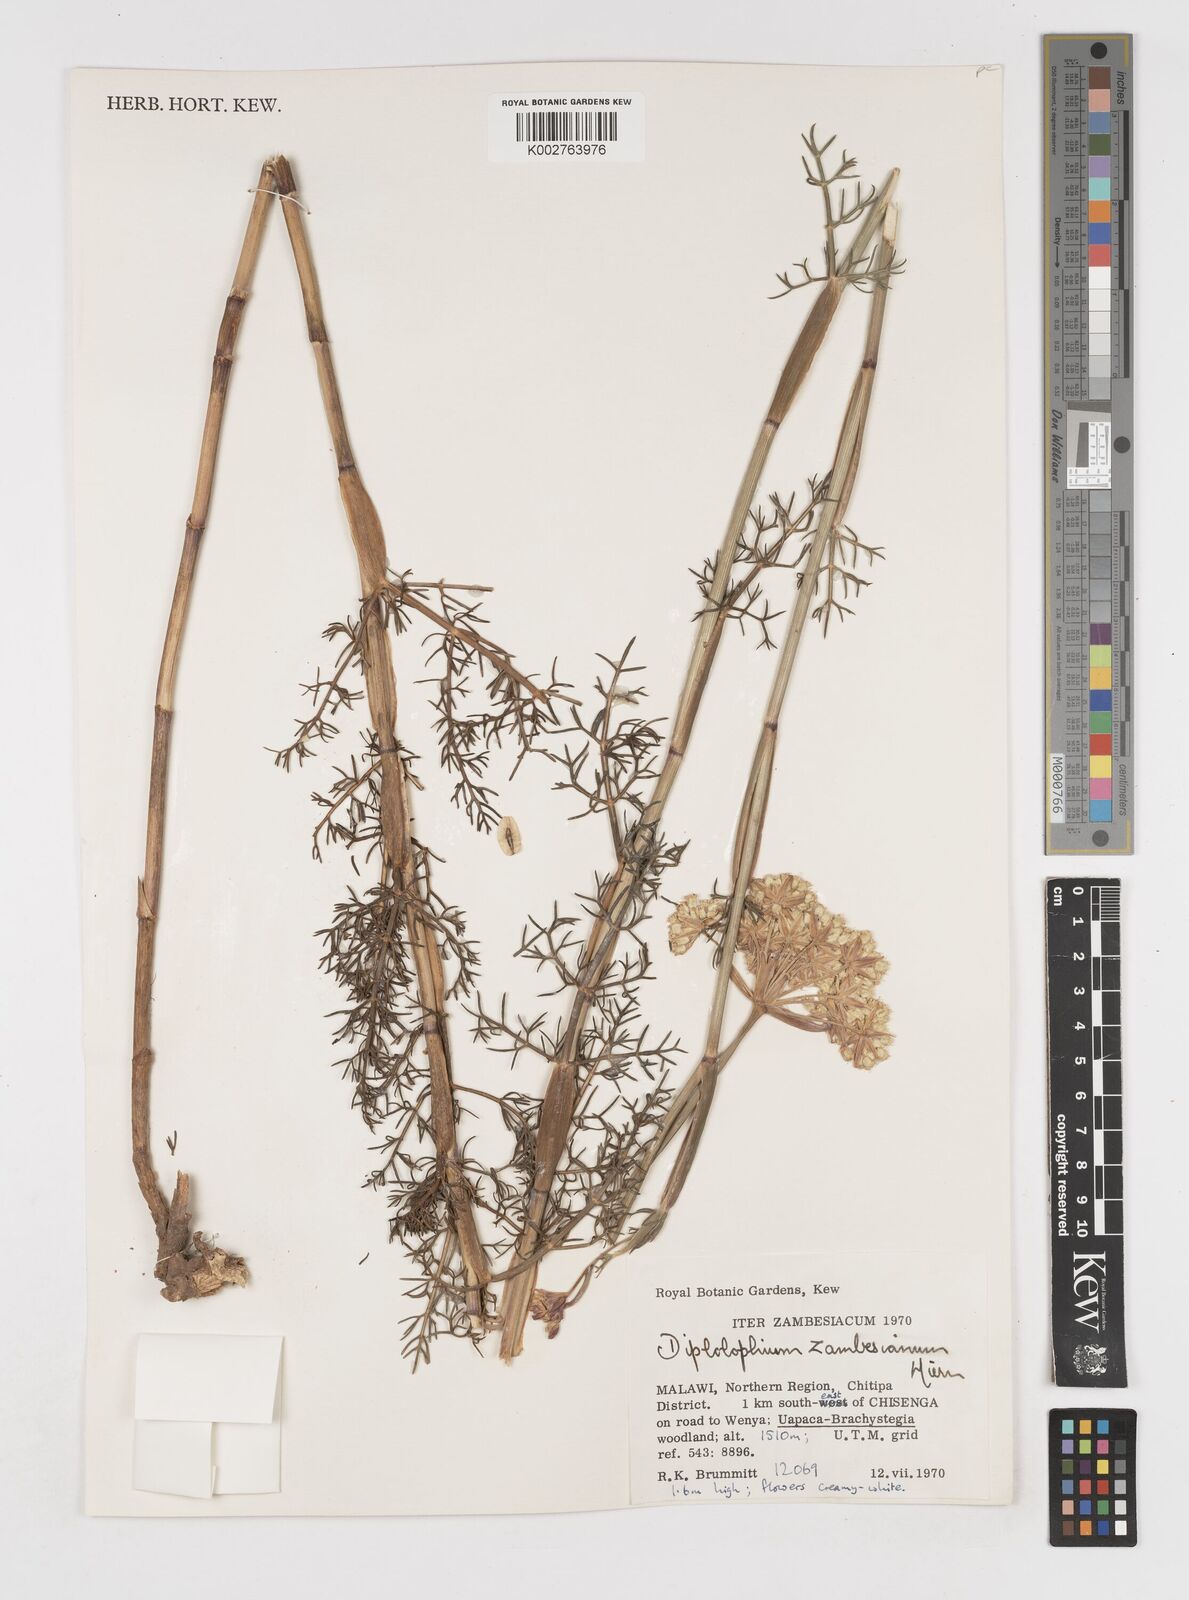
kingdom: Plantae
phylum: Tracheophyta
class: Magnoliopsida
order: Apiales
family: Apiaceae
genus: Diplolophium
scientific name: Diplolophium zambesianum
